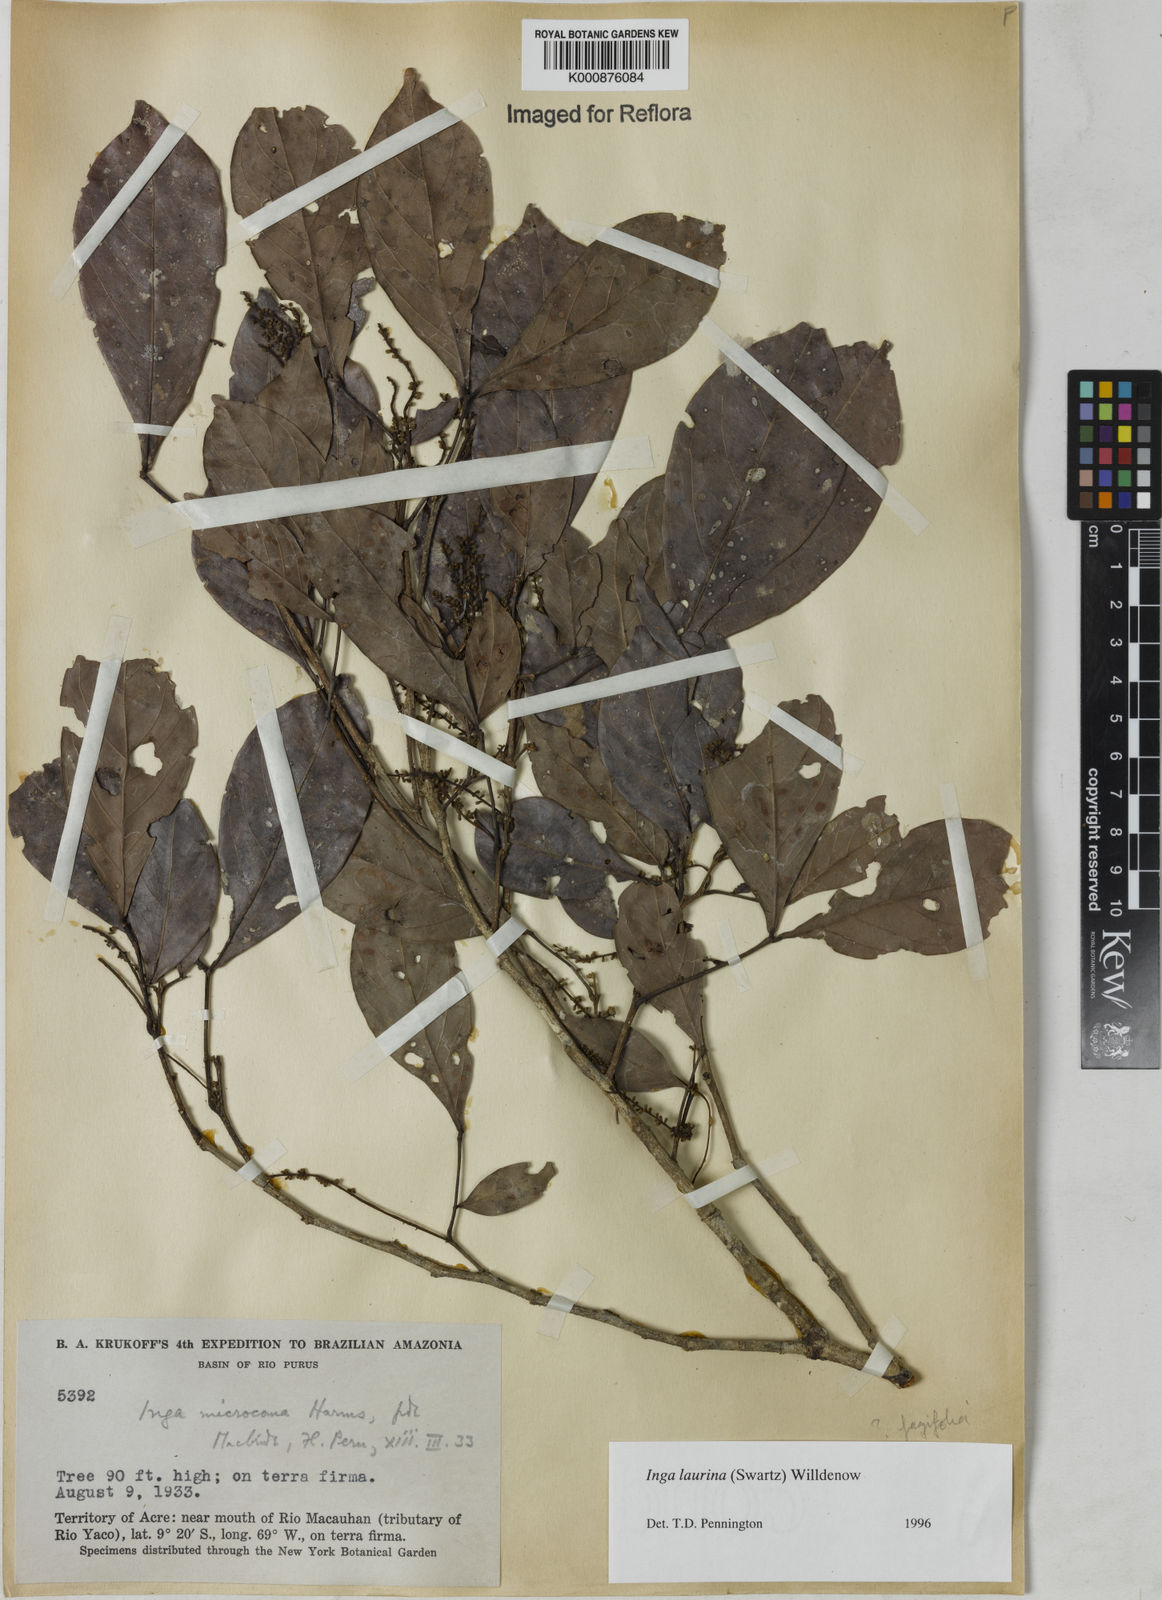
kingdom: Plantae
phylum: Tracheophyta
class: Magnoliopsida
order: Fabales
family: Fabaceae
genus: Inga
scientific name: Inga laurina
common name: Red wood
